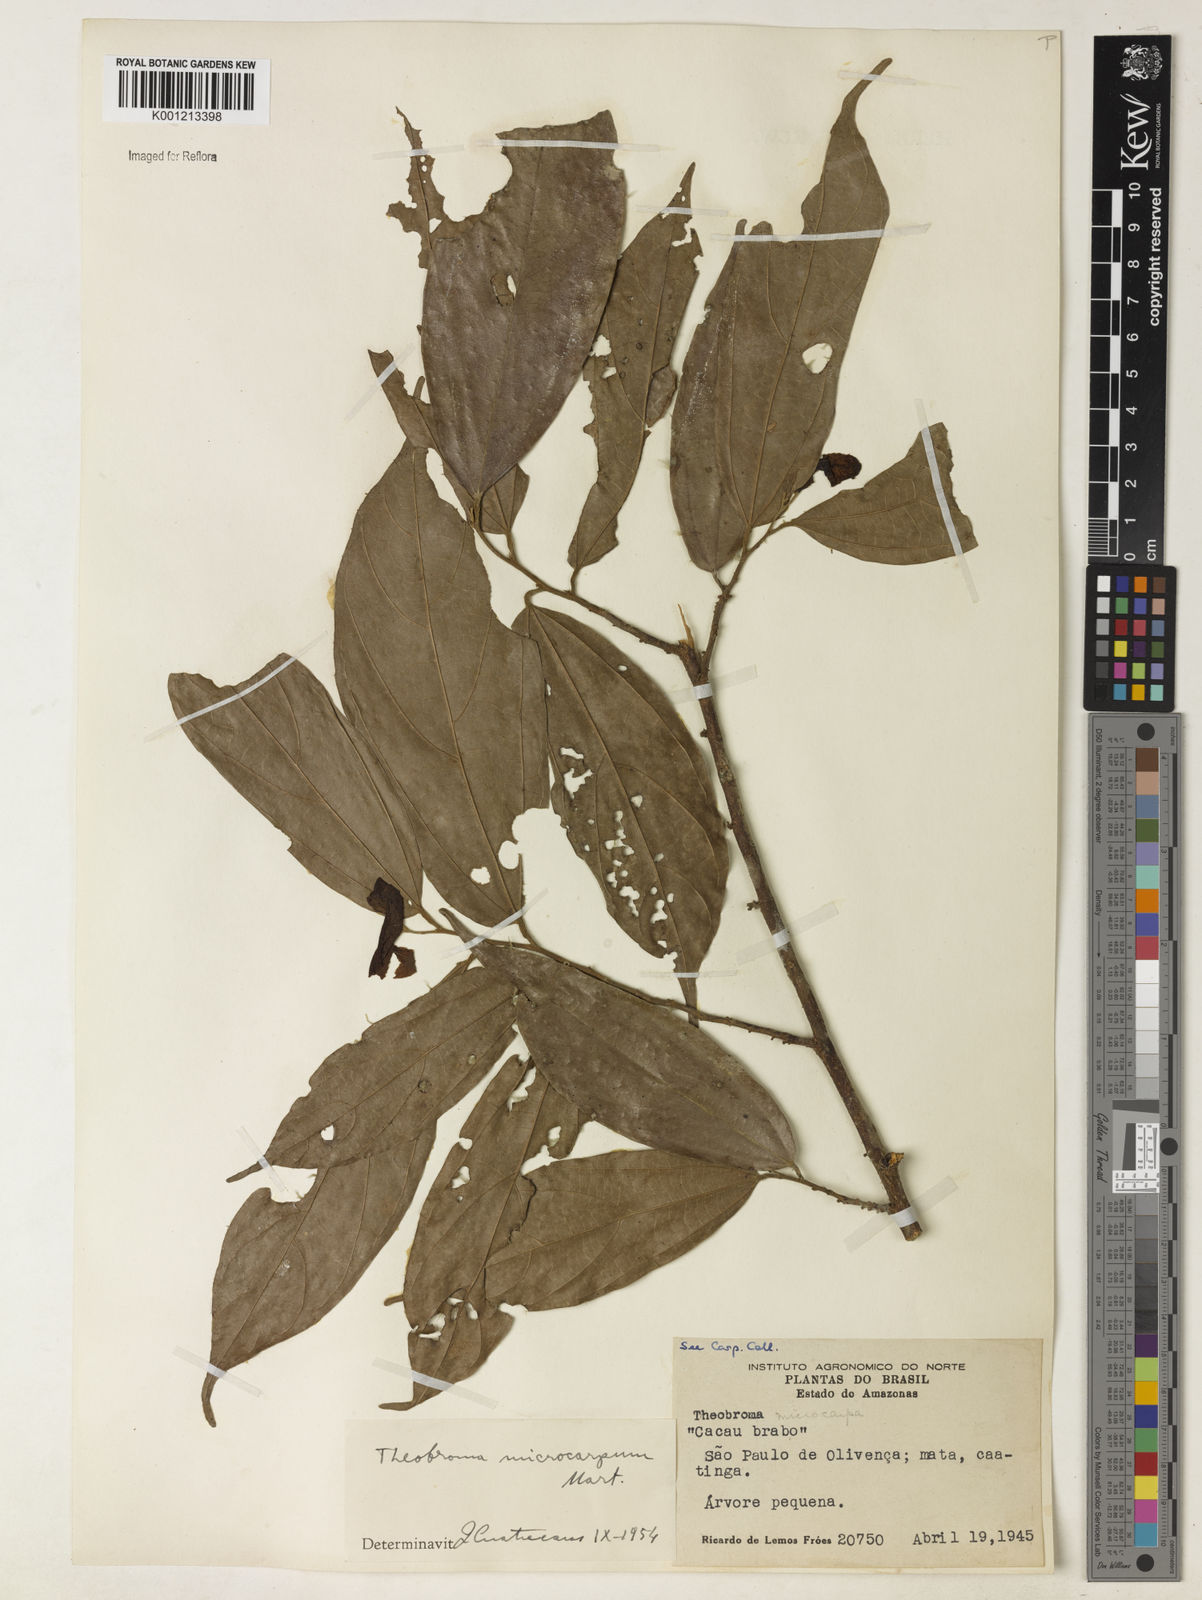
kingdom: Plantae
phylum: Tracheophyta
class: Magnoliopsida
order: Malvales
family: Malvaceae
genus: Theobroma
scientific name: Theobroma microcarpum
